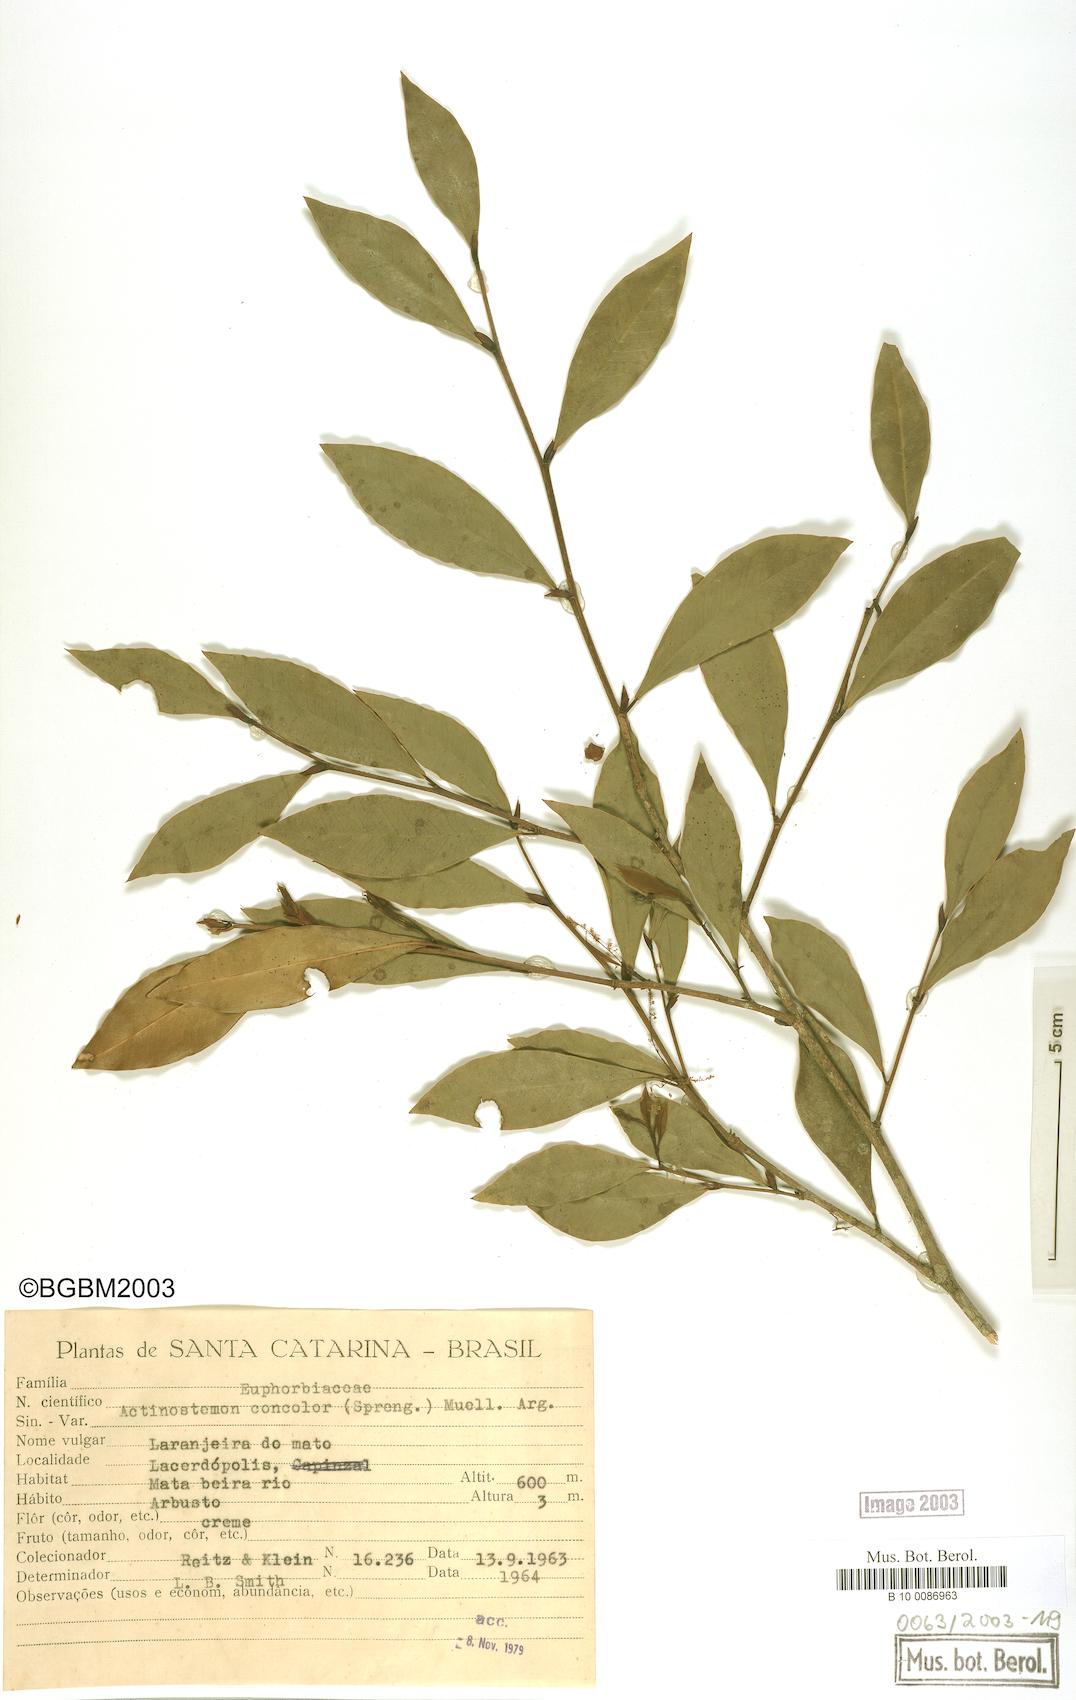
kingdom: Plantae
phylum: Tracheophyta
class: Magnoliopsida
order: Malpighiales
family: Euphorbiaceae
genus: Actinostemon
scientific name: Actinostemon concolor
